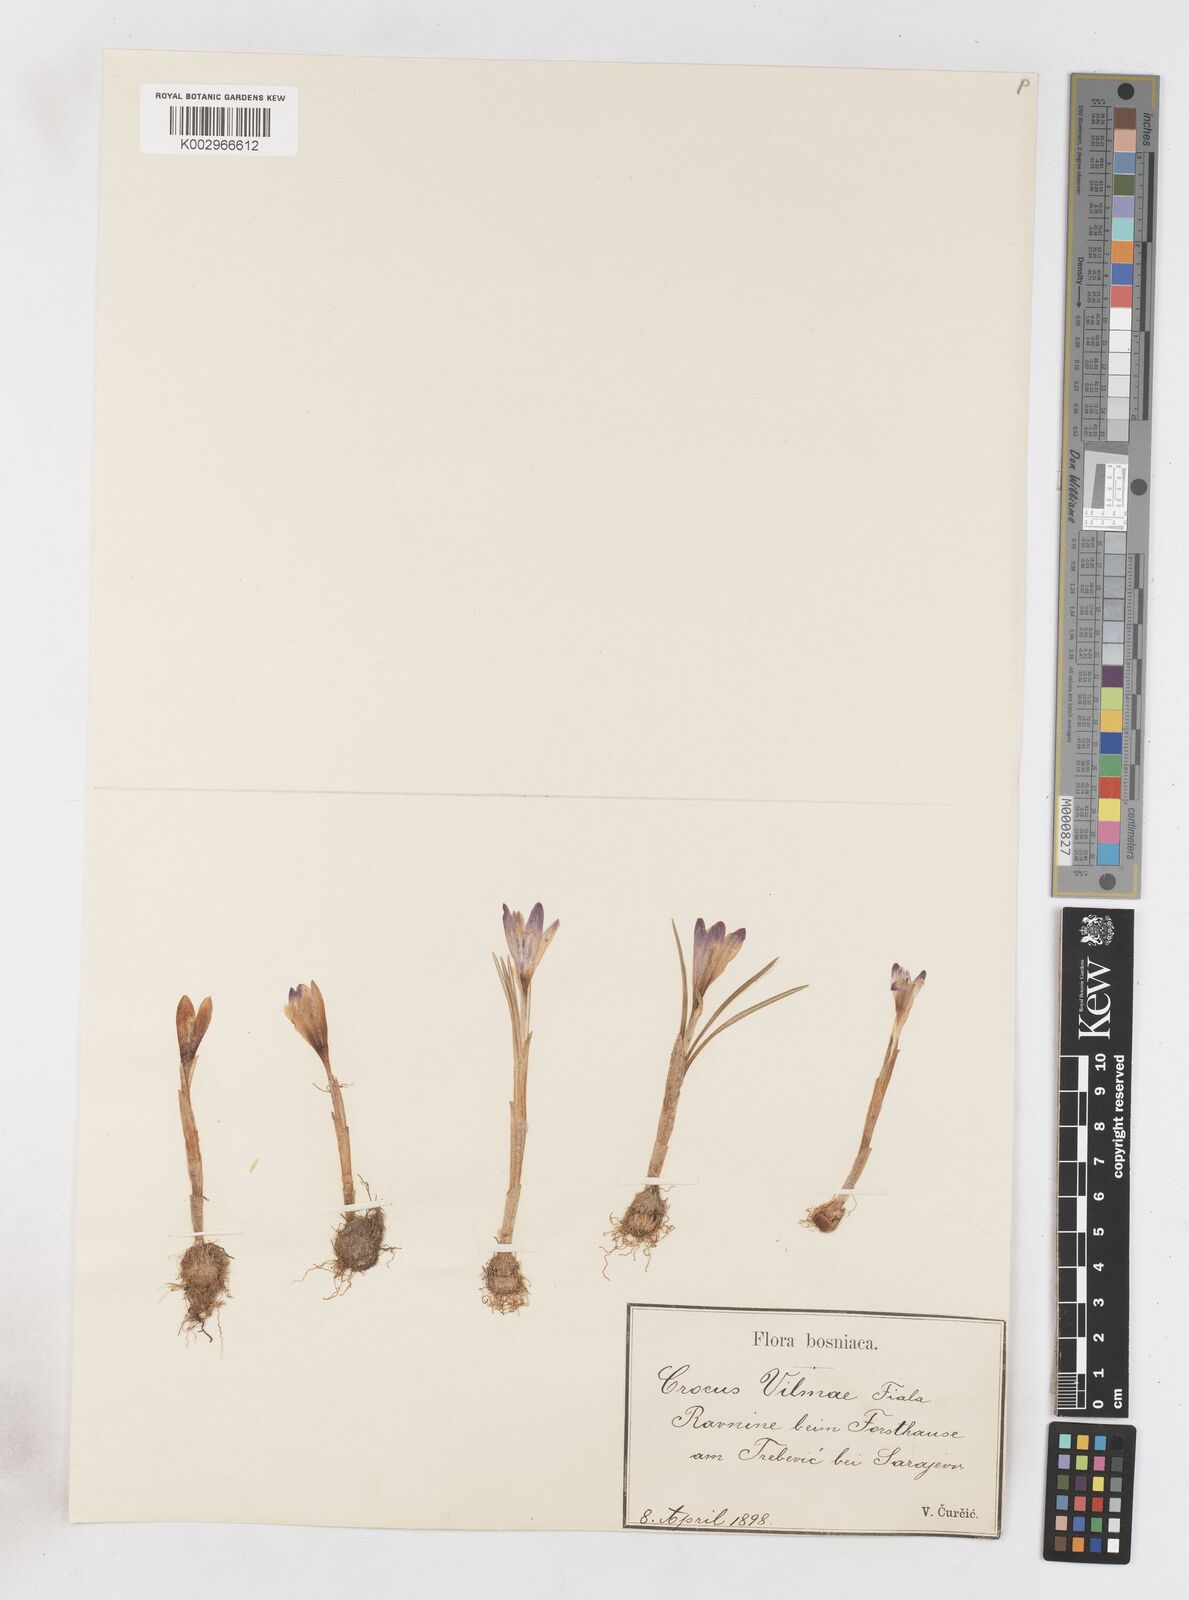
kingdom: Plantae
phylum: Tracheophyta
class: Liliopsida
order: Asparagales
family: Iridaceae
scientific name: Iridaceae
